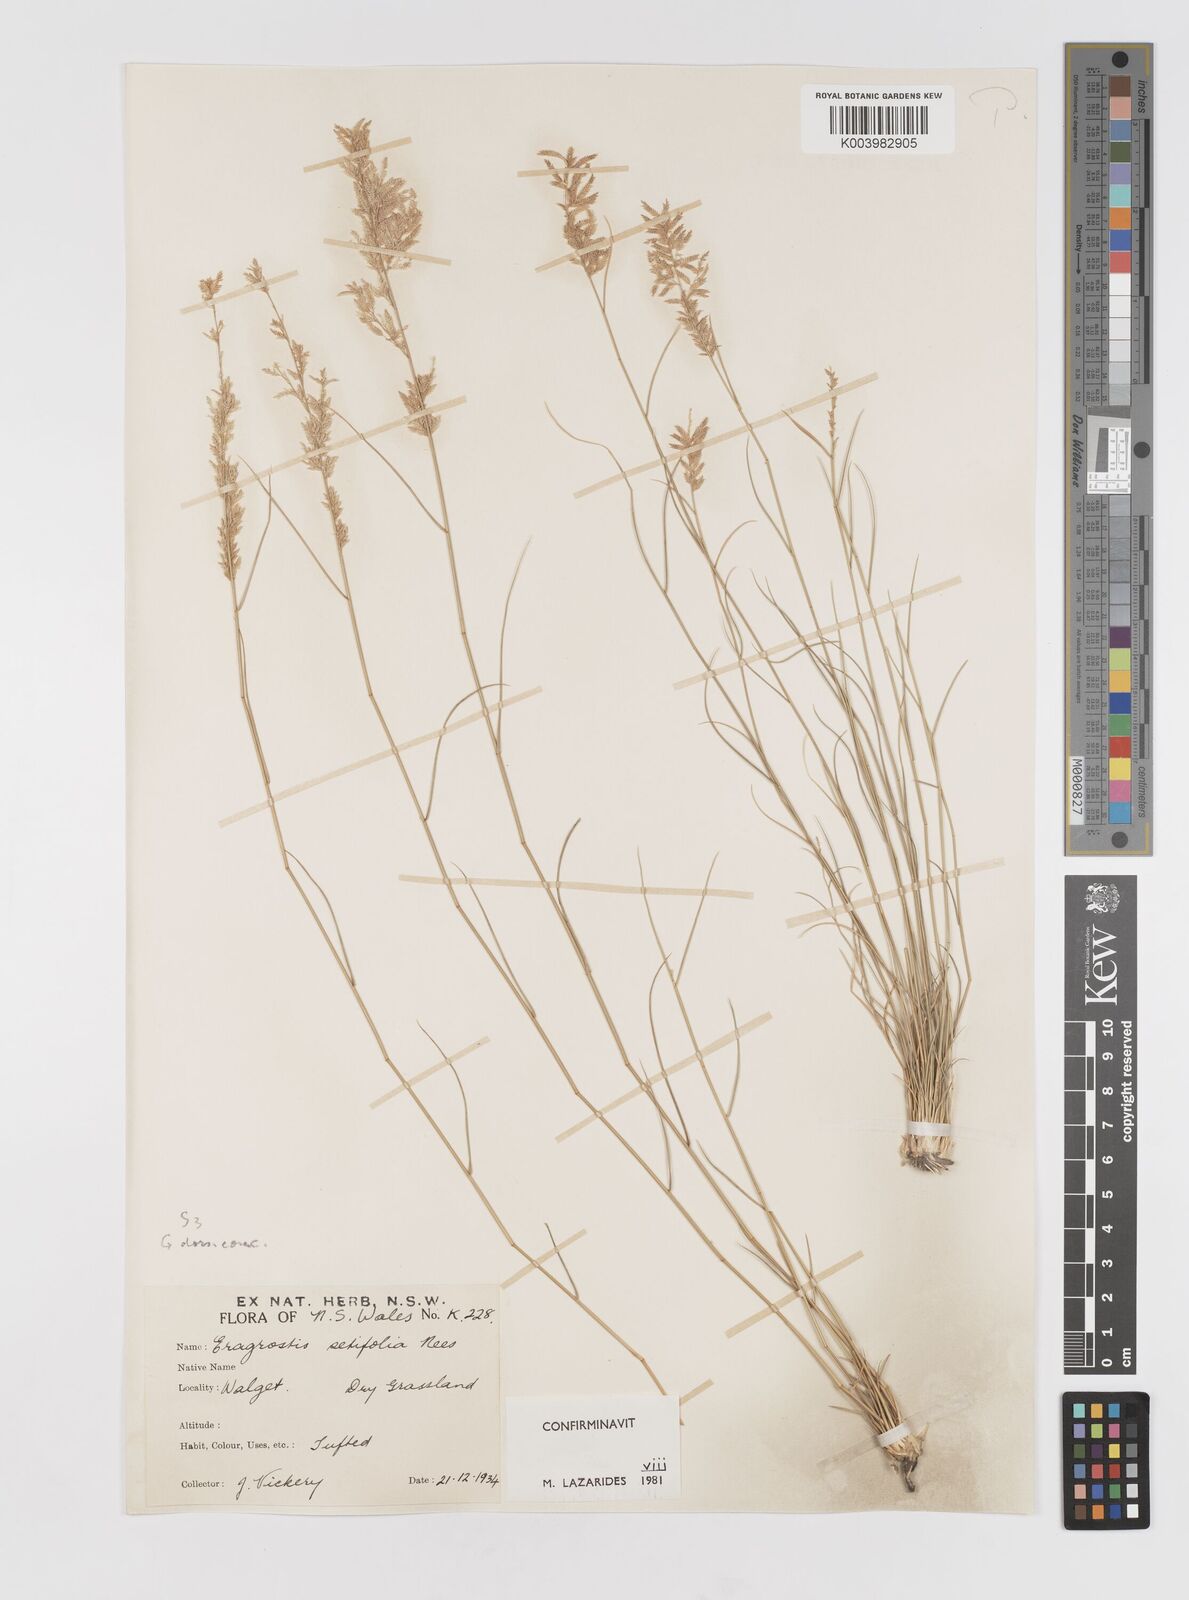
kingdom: Plantae
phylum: Tracheophyta
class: Liliopsida
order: Poales
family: Poaceae
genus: Eragrostis
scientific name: Eragrostis setifolia
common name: Bristleleaf lovegrass
